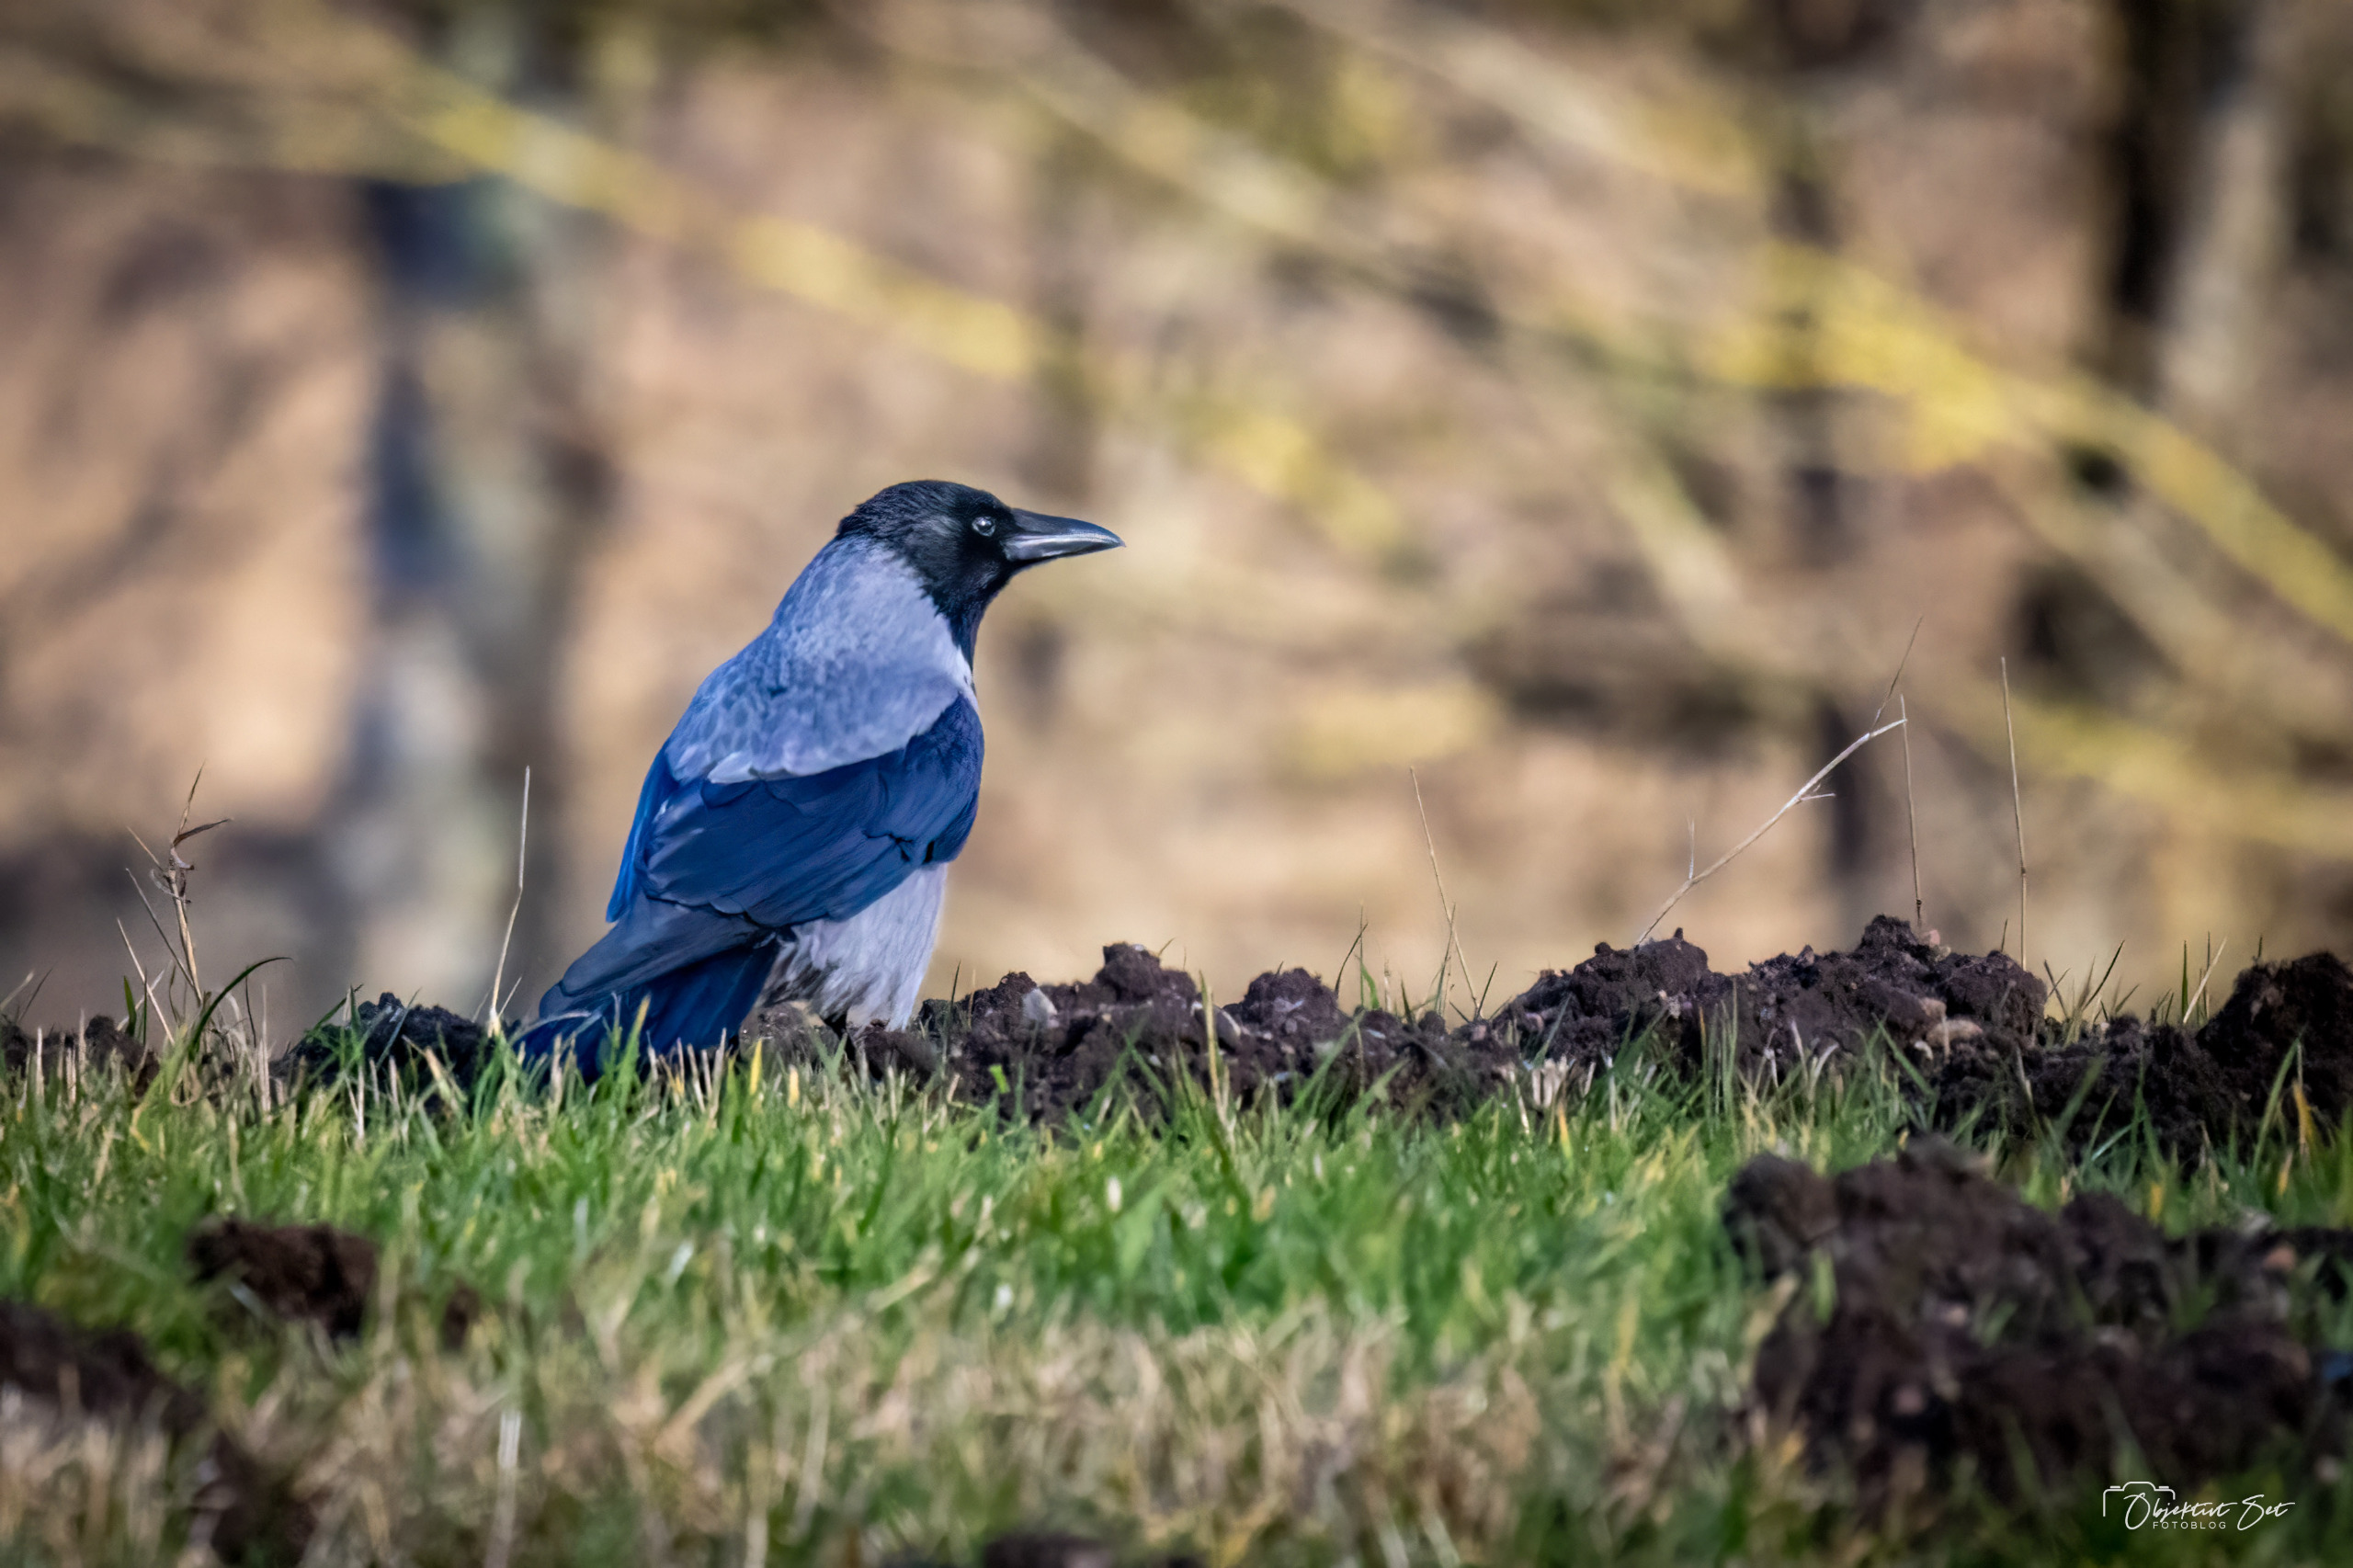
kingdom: Animalia
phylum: Chordata
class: Aves
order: Passeriformes
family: Corvidae
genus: Corvus
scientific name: Corvus cornix
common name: Gråkrage
